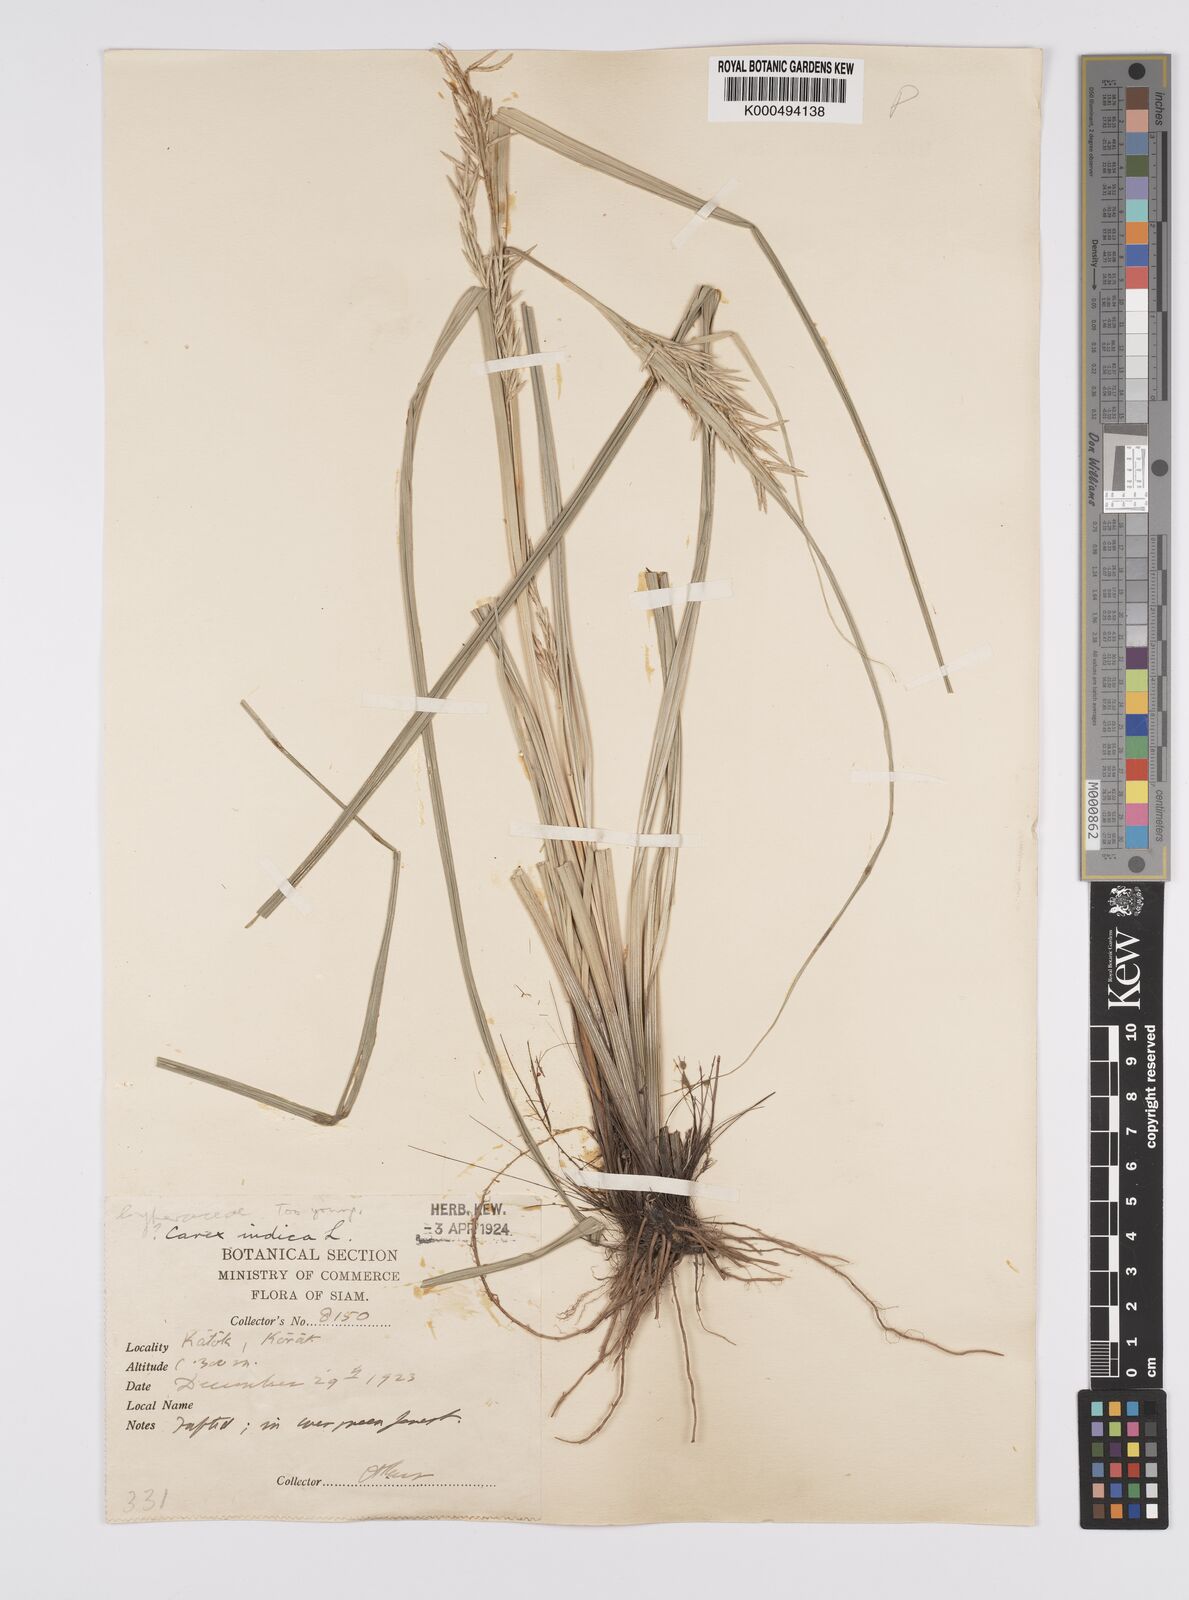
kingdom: Plantae
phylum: Tracheophyta
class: Liliopsida
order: Poales
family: Cyperaceae
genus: Carex
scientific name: Carex indica
